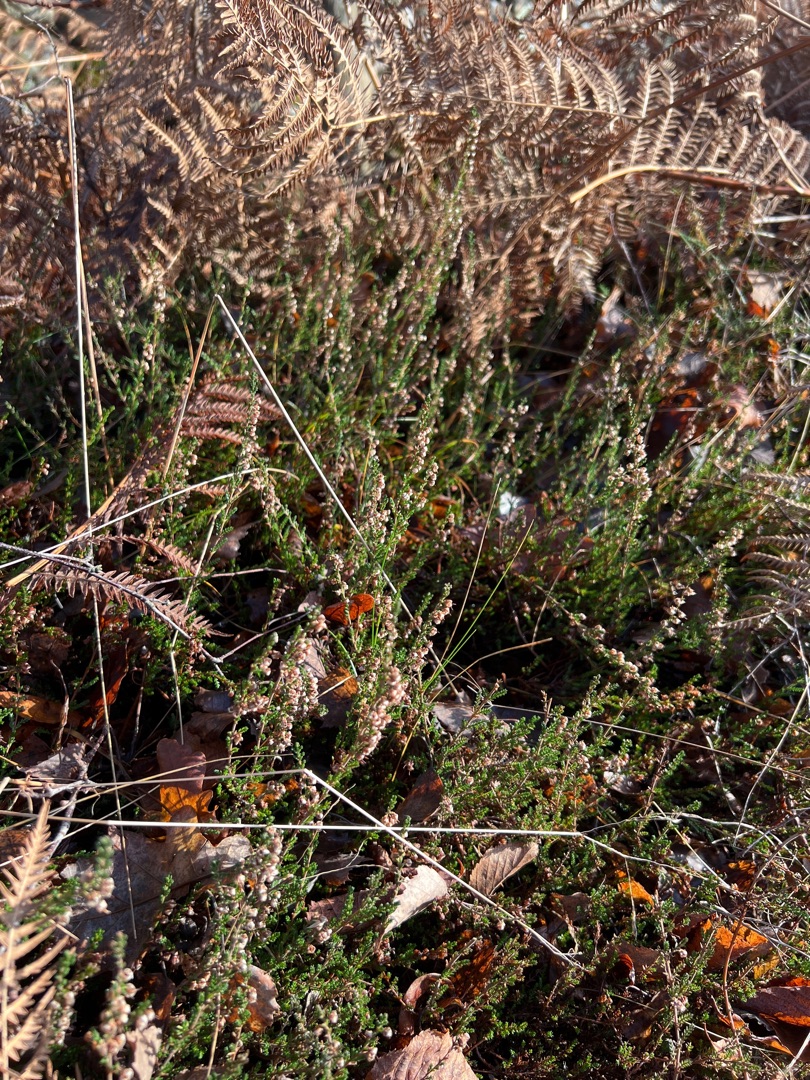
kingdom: Plantae
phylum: Tracheophyta
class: Magnoliopsida
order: Ericales
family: Ericaceae
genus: Calluna
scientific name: Calluna vulgaris
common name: Hedelyng
